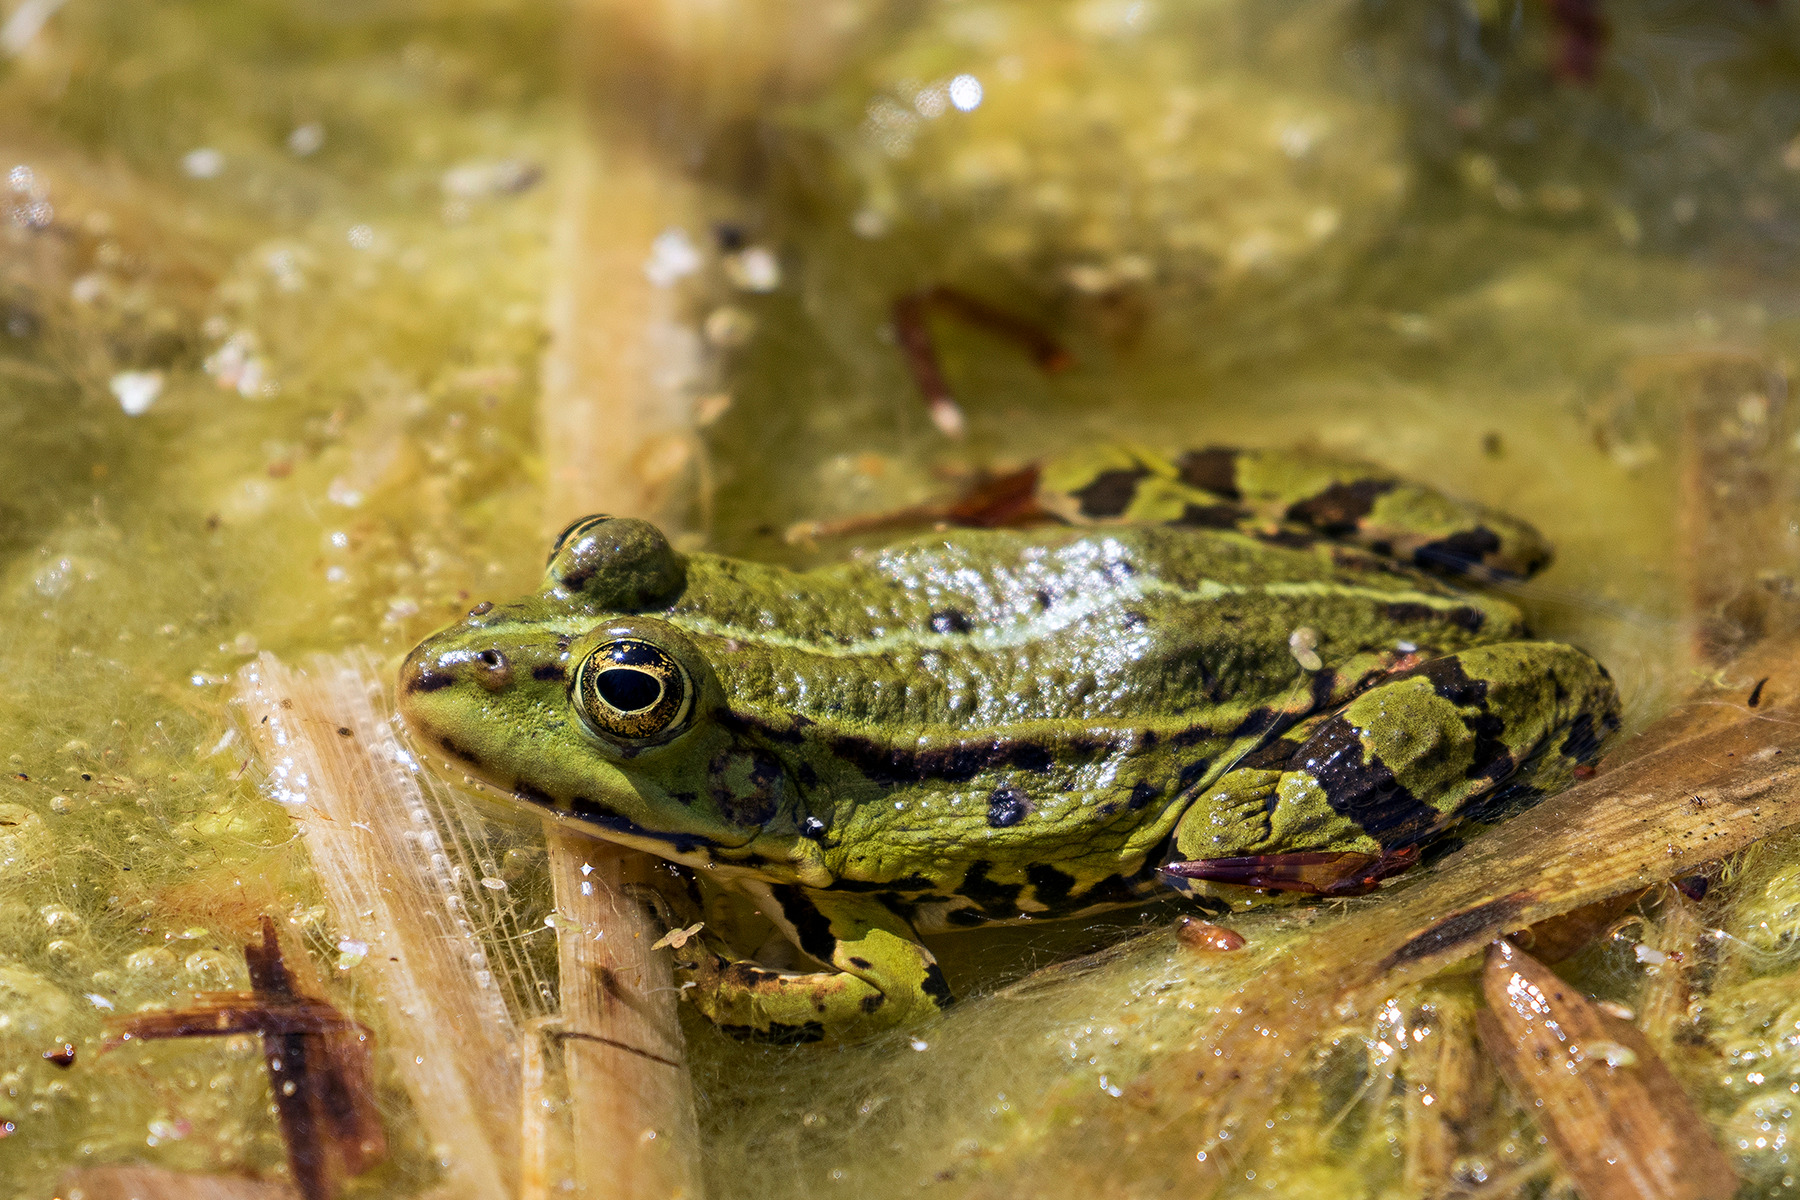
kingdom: Animalia
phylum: Chordata
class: Amphibia
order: Anura
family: Ranidae
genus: Pelophylax
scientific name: Pelophylax lessonae
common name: Grøn frø
